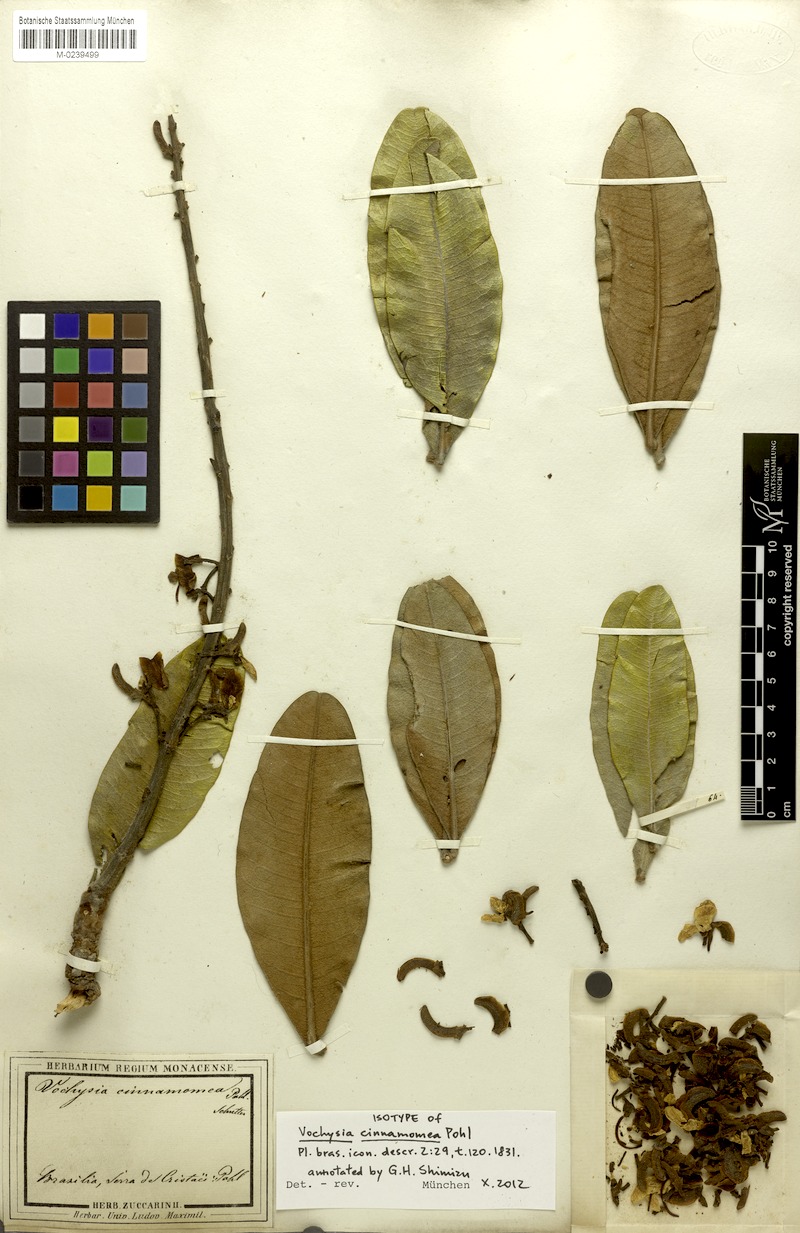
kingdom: Plantae
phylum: Tracheophyta
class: Magnoliopsida
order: Myrtales
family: Vochysiaceae
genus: Vochysia
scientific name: Vochysia cinnamomea
